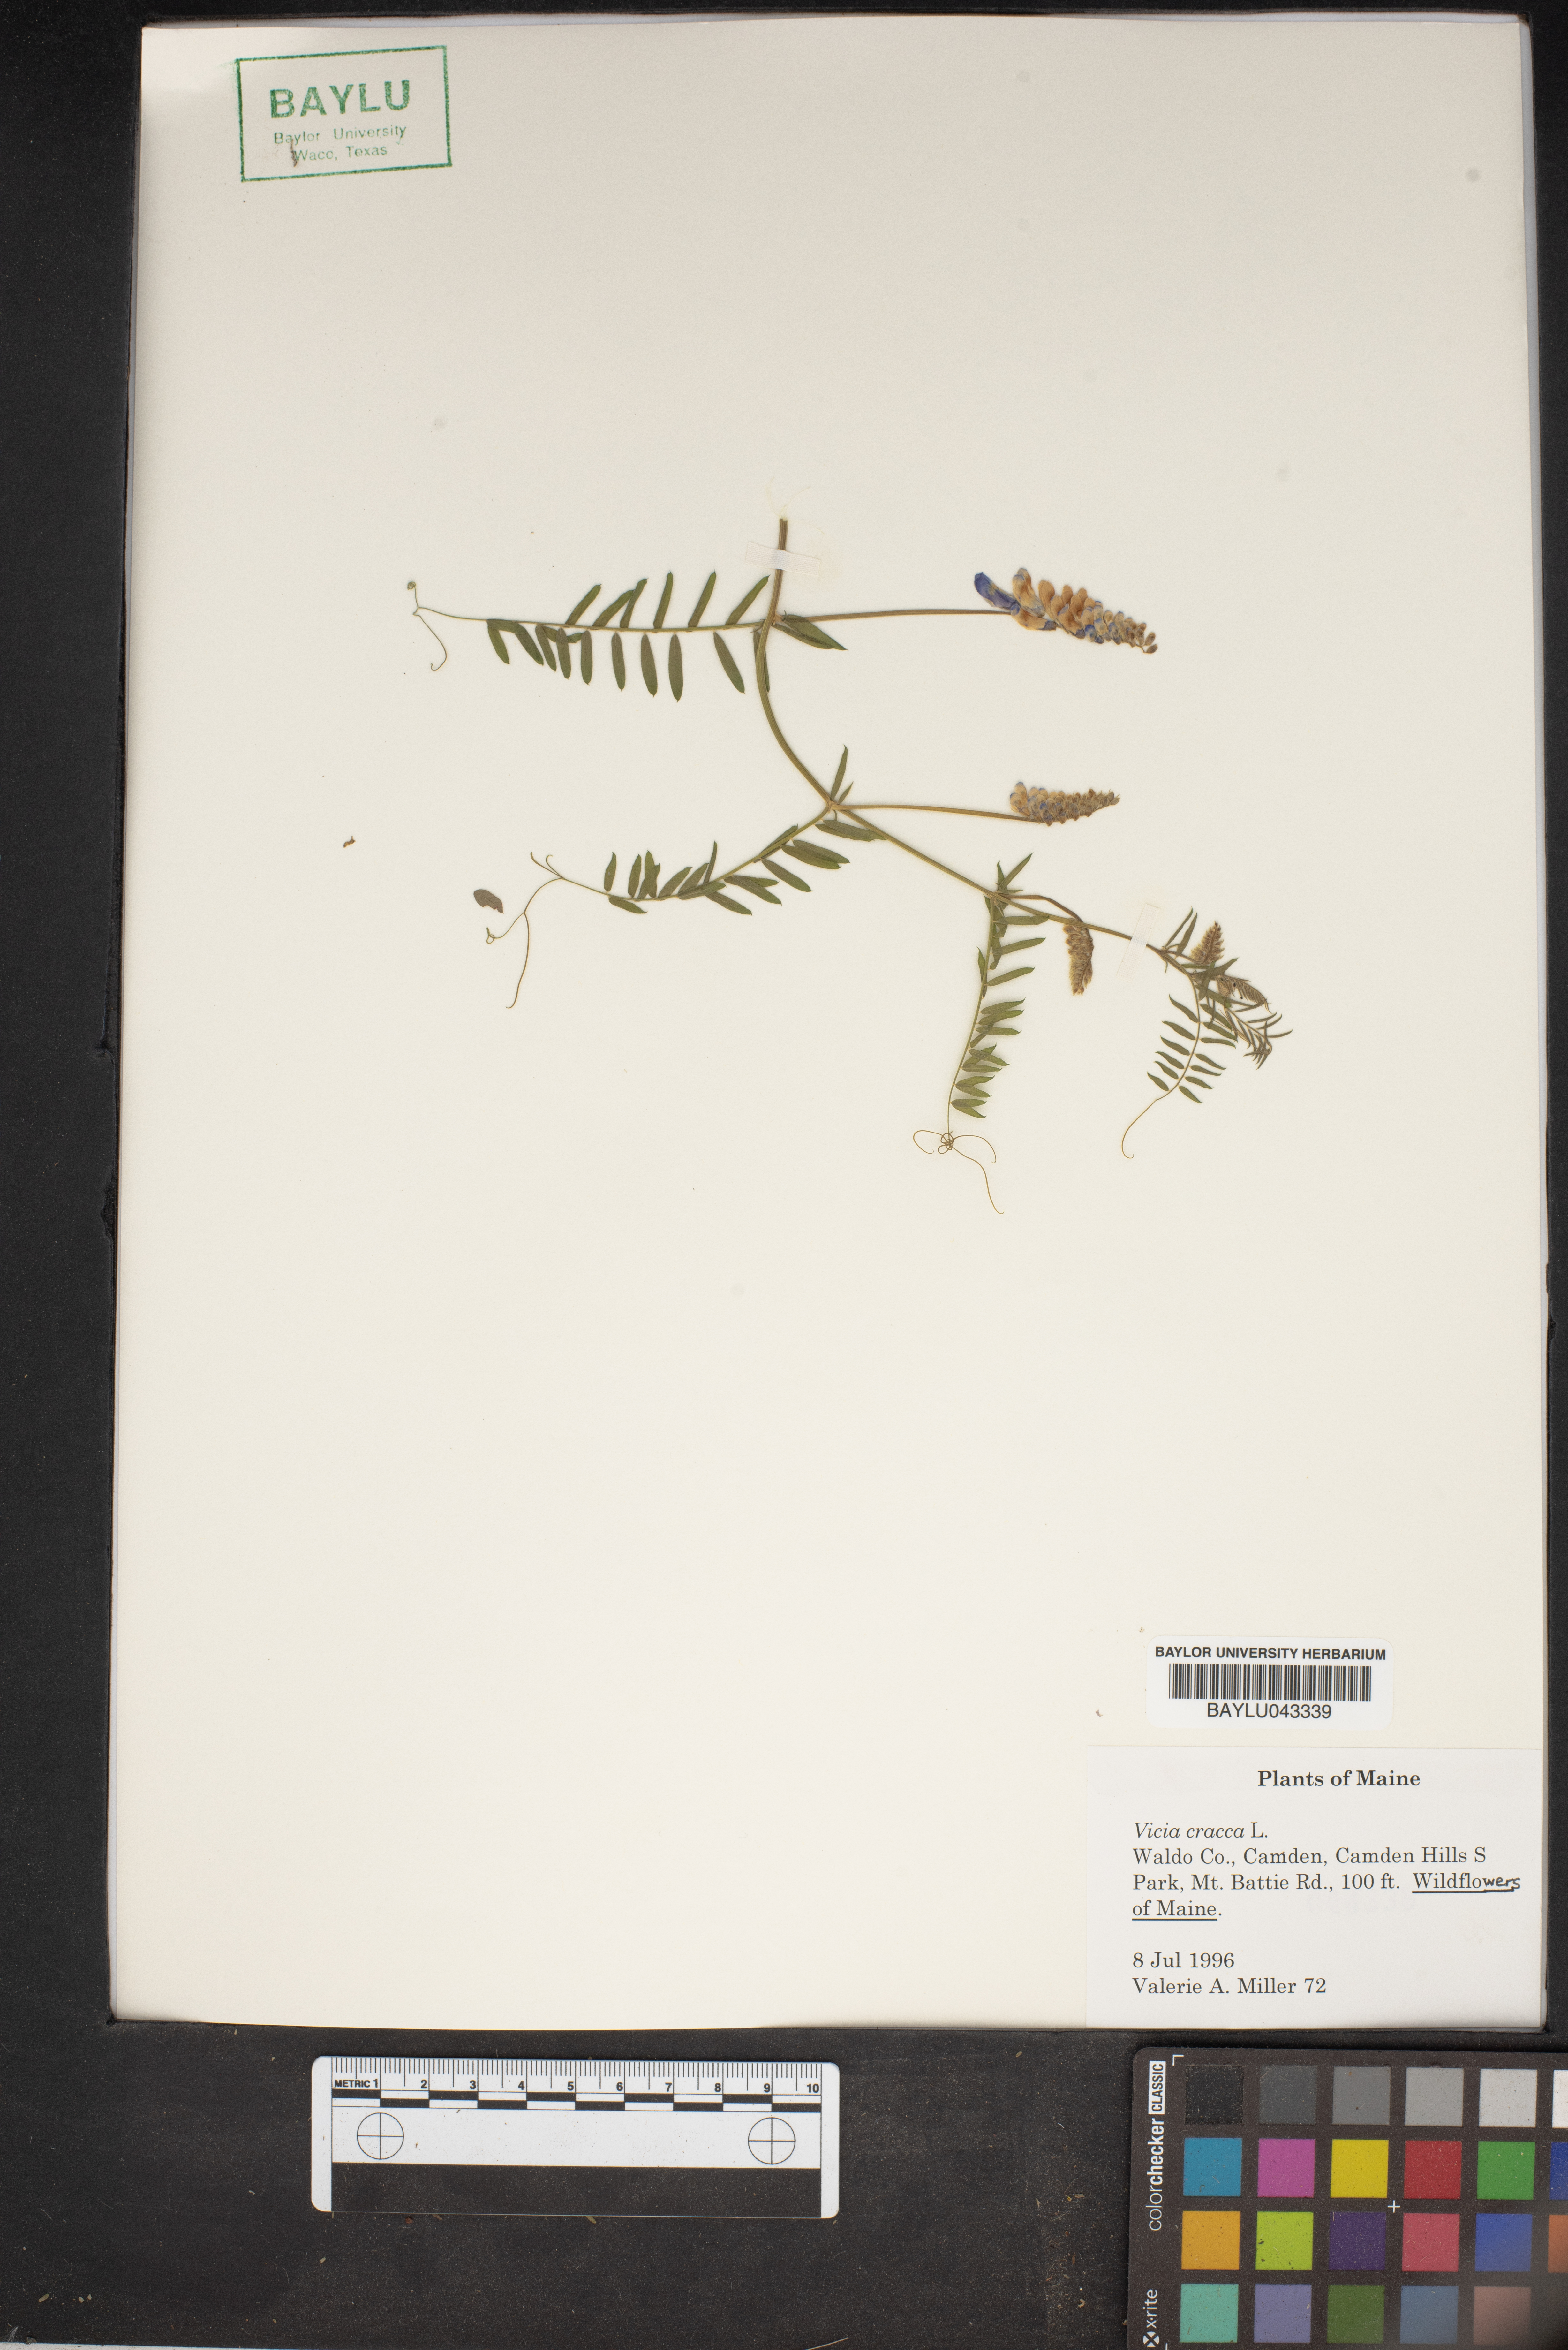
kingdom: Plantae
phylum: Tracheophyta
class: Magnoliopsida
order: Fabales
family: Fabaceae
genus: Vicia
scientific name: Vicia cracca
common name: Bird vetch
